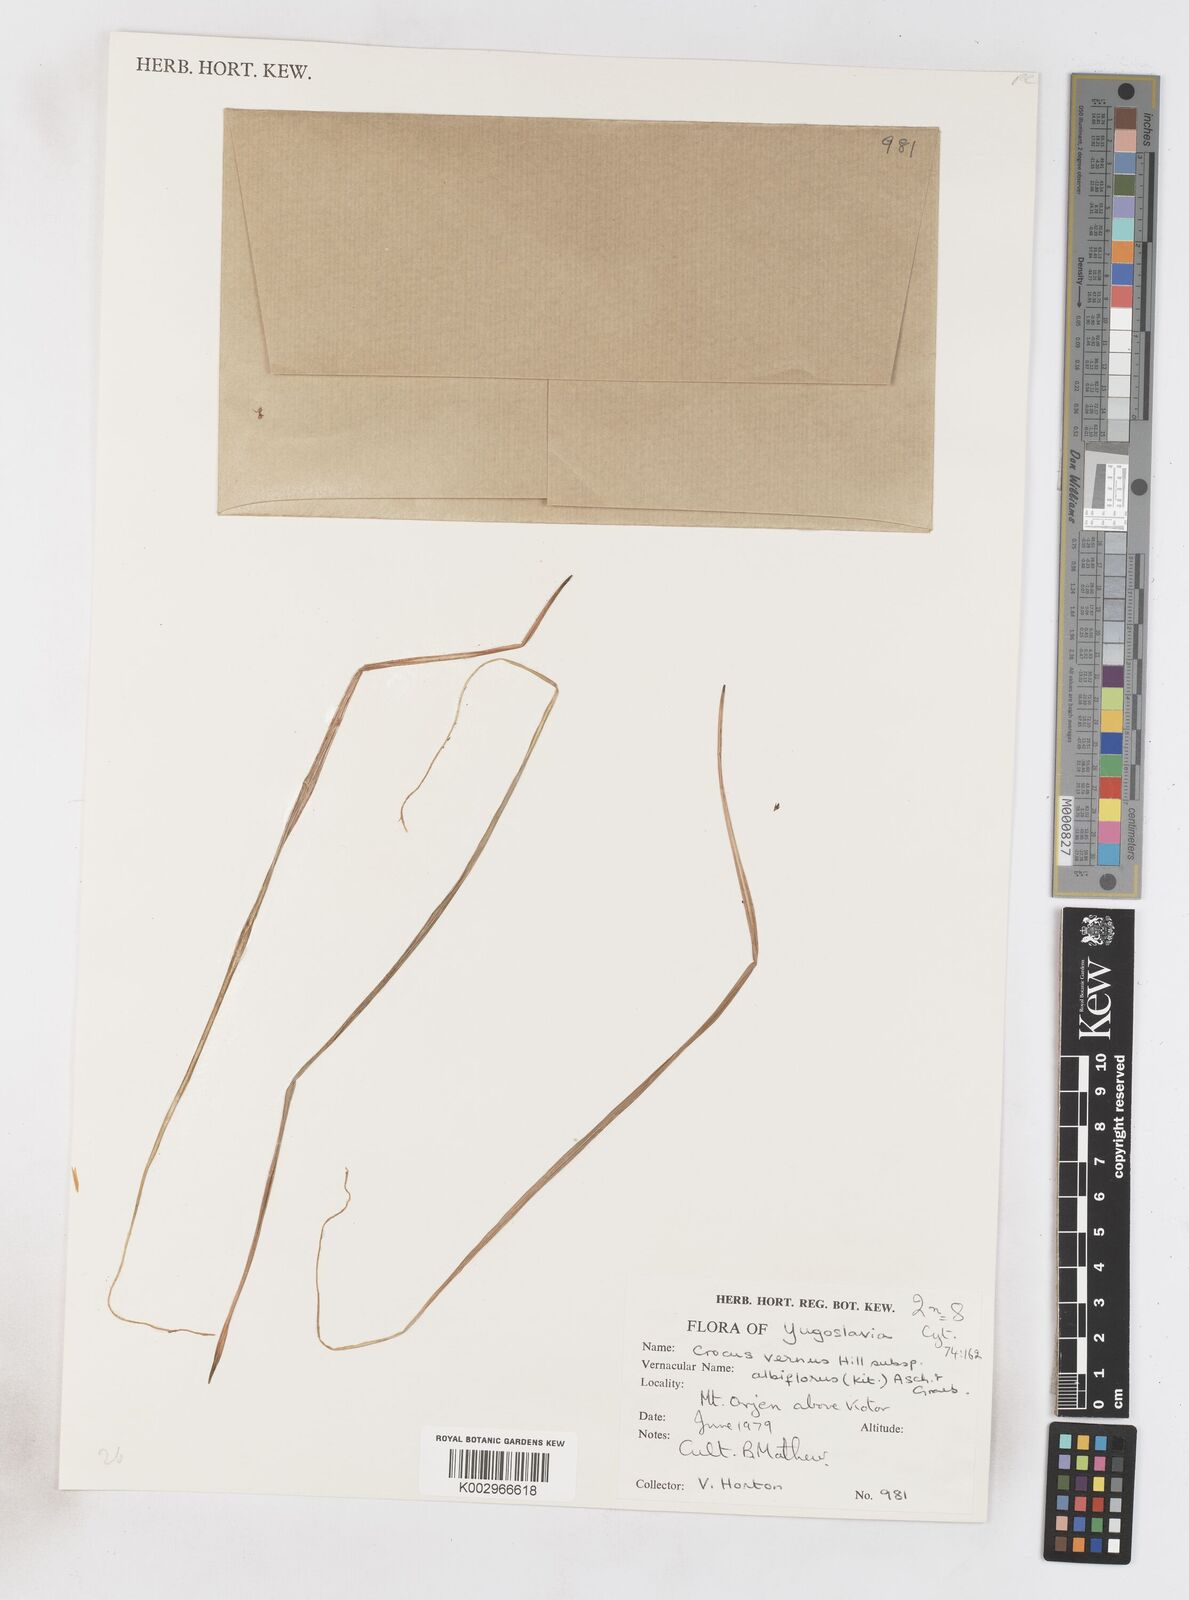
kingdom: Plantae
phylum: Tracheophyta
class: Liliopsida
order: Asparagales
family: Iridaceae
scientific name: Iridaceae
